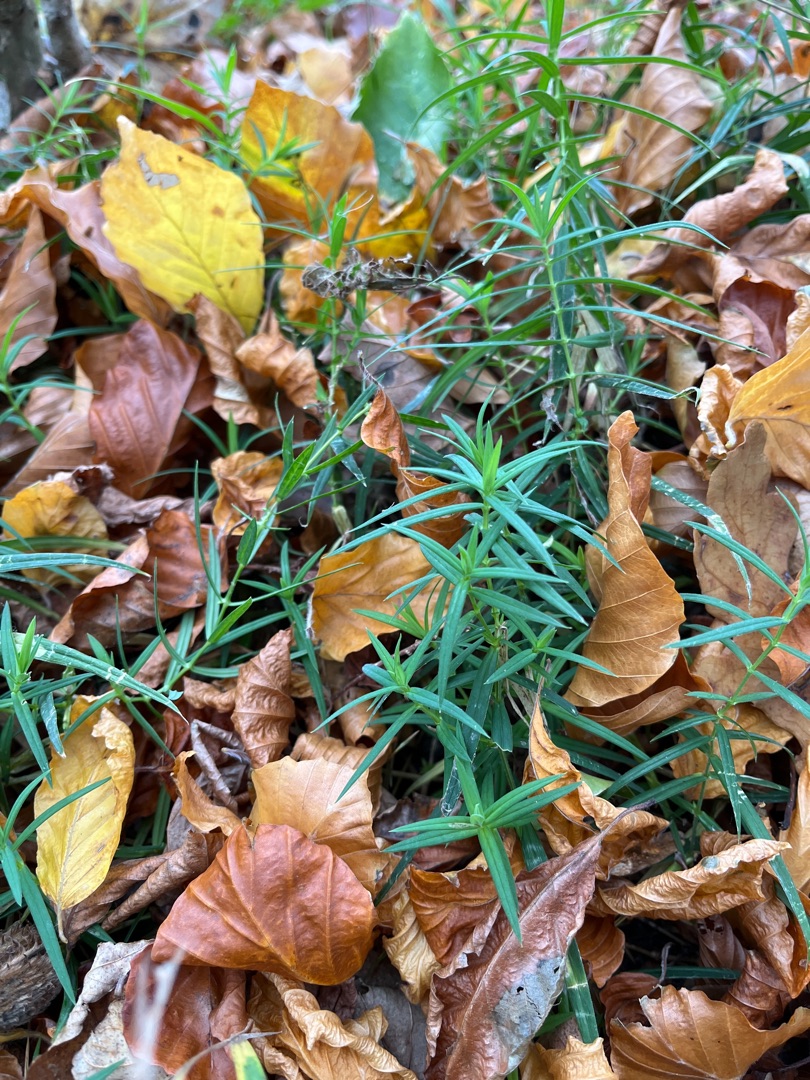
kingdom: Plantae
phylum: Tracheophyta
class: Magnoliopsida
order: Caryophyllales
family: Caryophyllaceae
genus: Rabelera
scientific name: Rabelera holostea
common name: Stor fladstjerne
